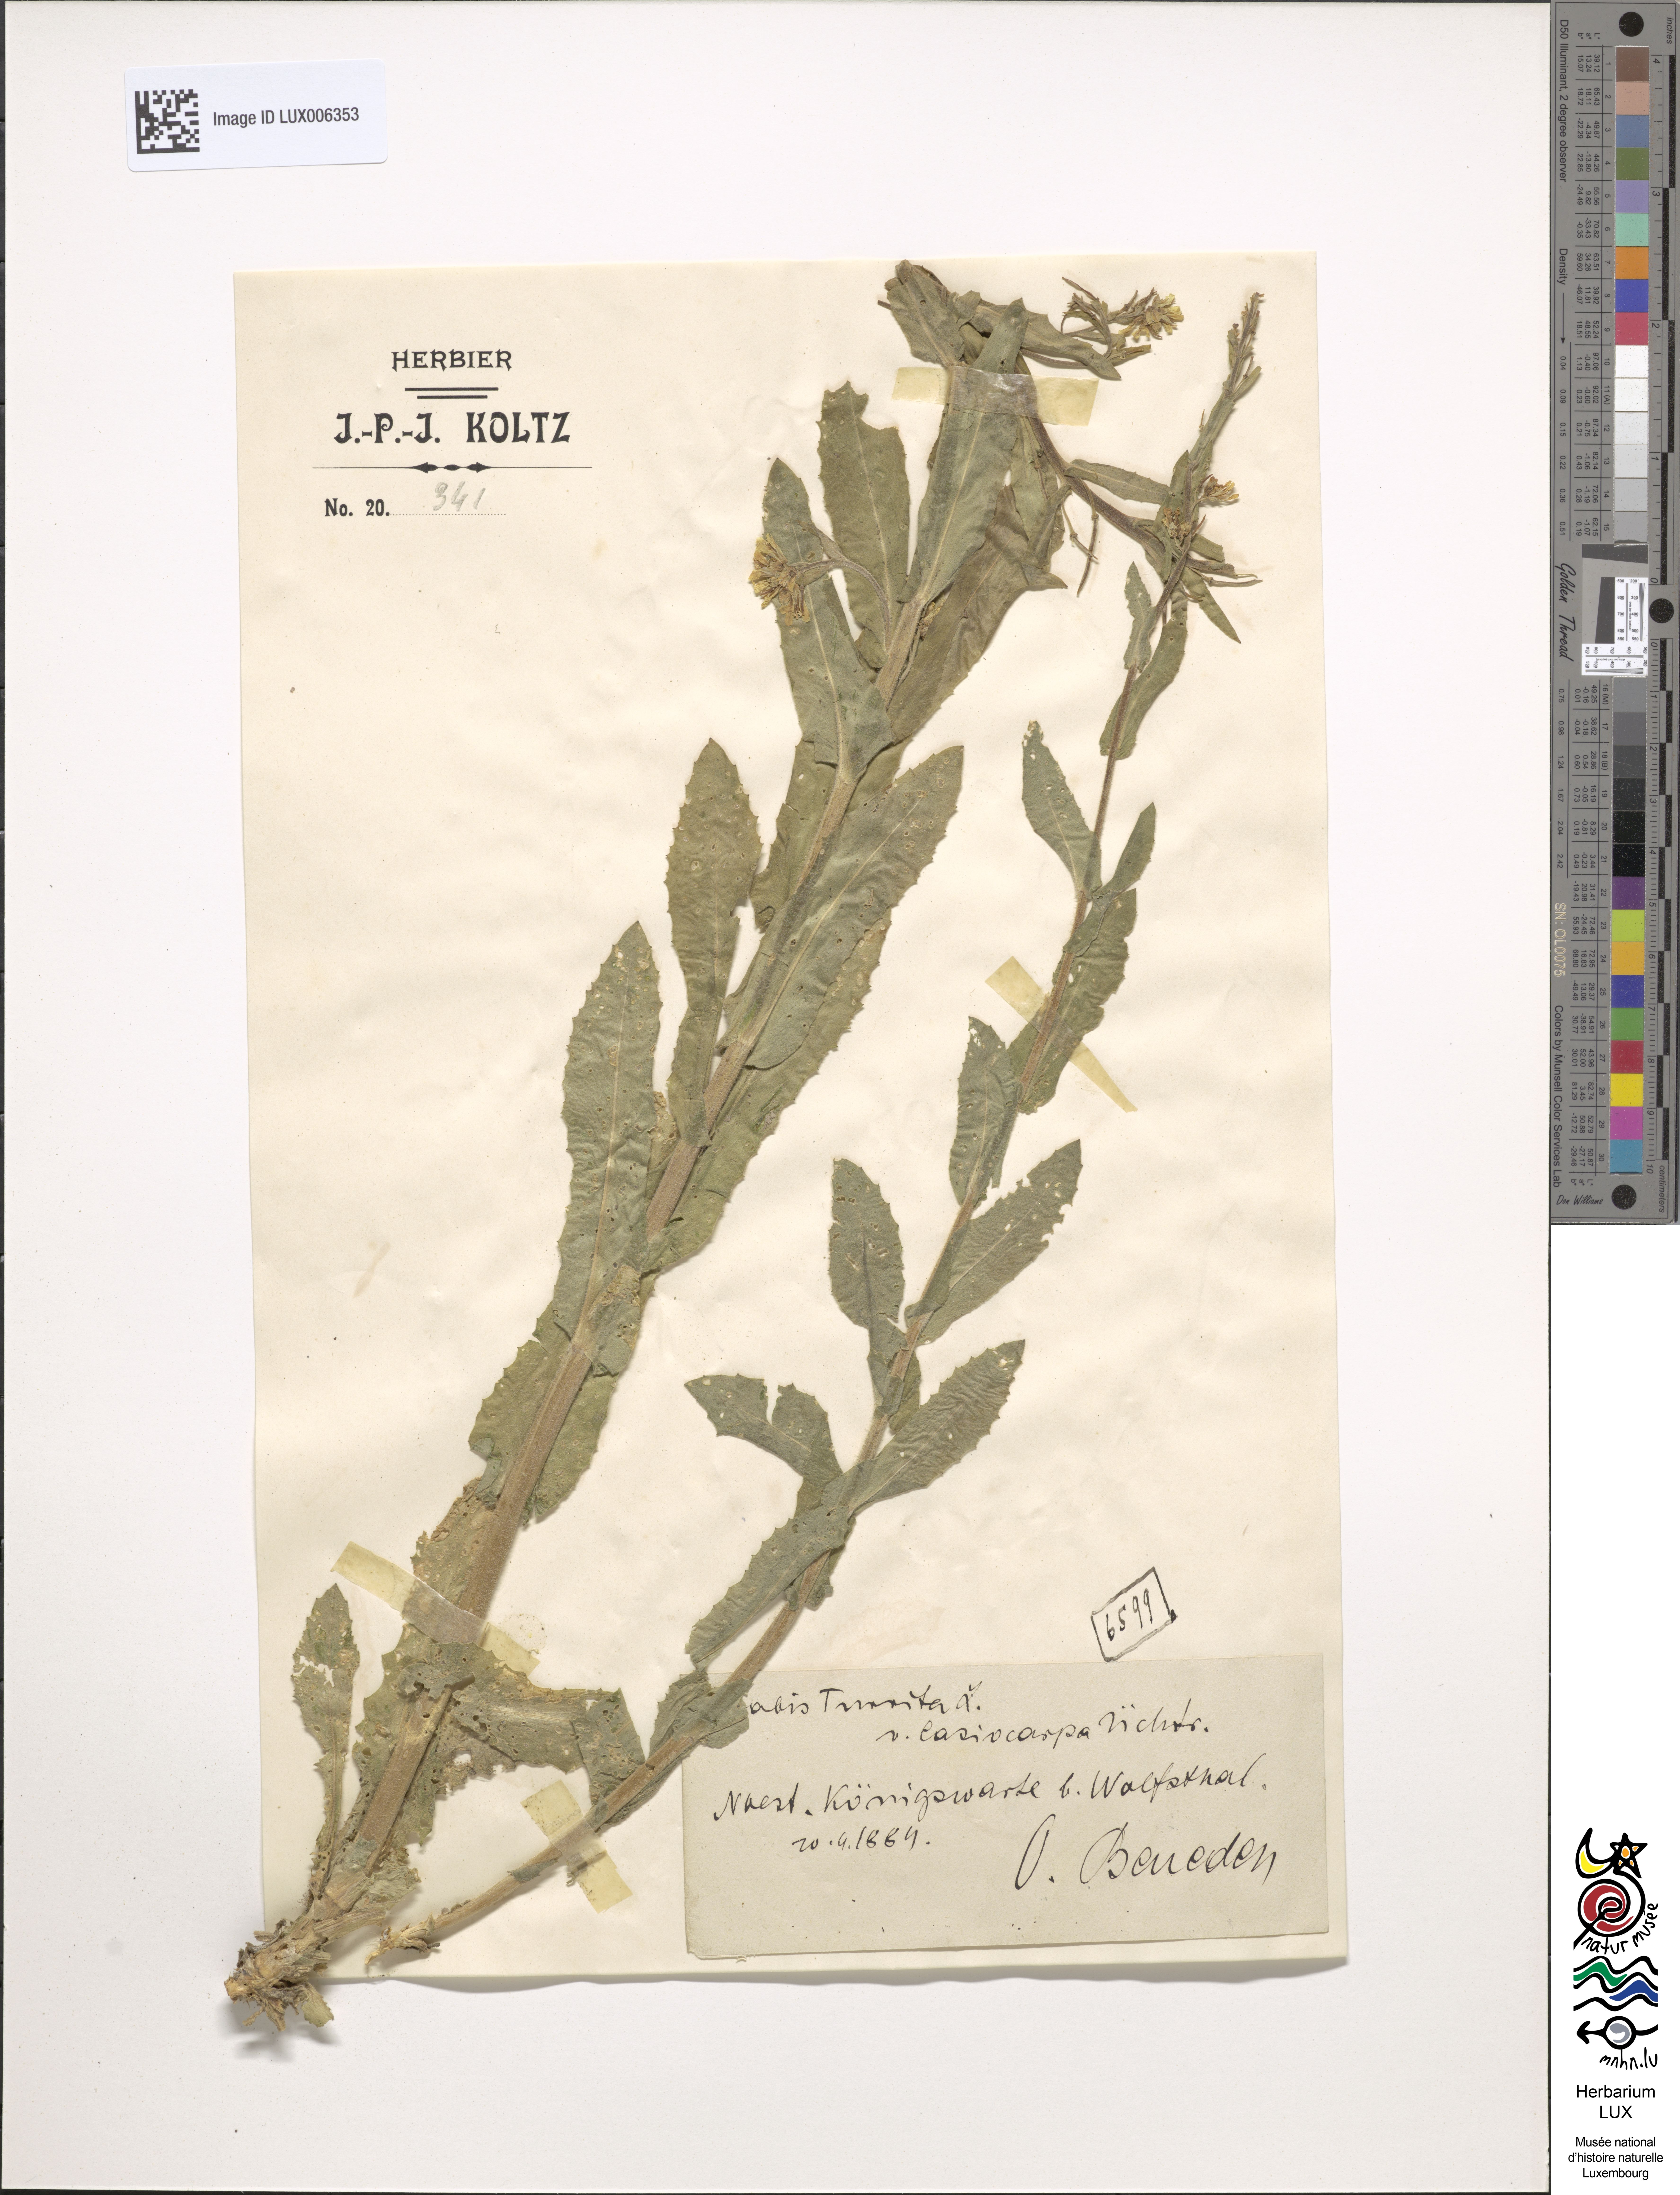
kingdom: Plantae
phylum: Tracheophyta
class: Magnoliopsida
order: Brassicales
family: Brassicaceae
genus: Pseudoturritis
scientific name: Pseudoturritis turrita
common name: Tower cress
